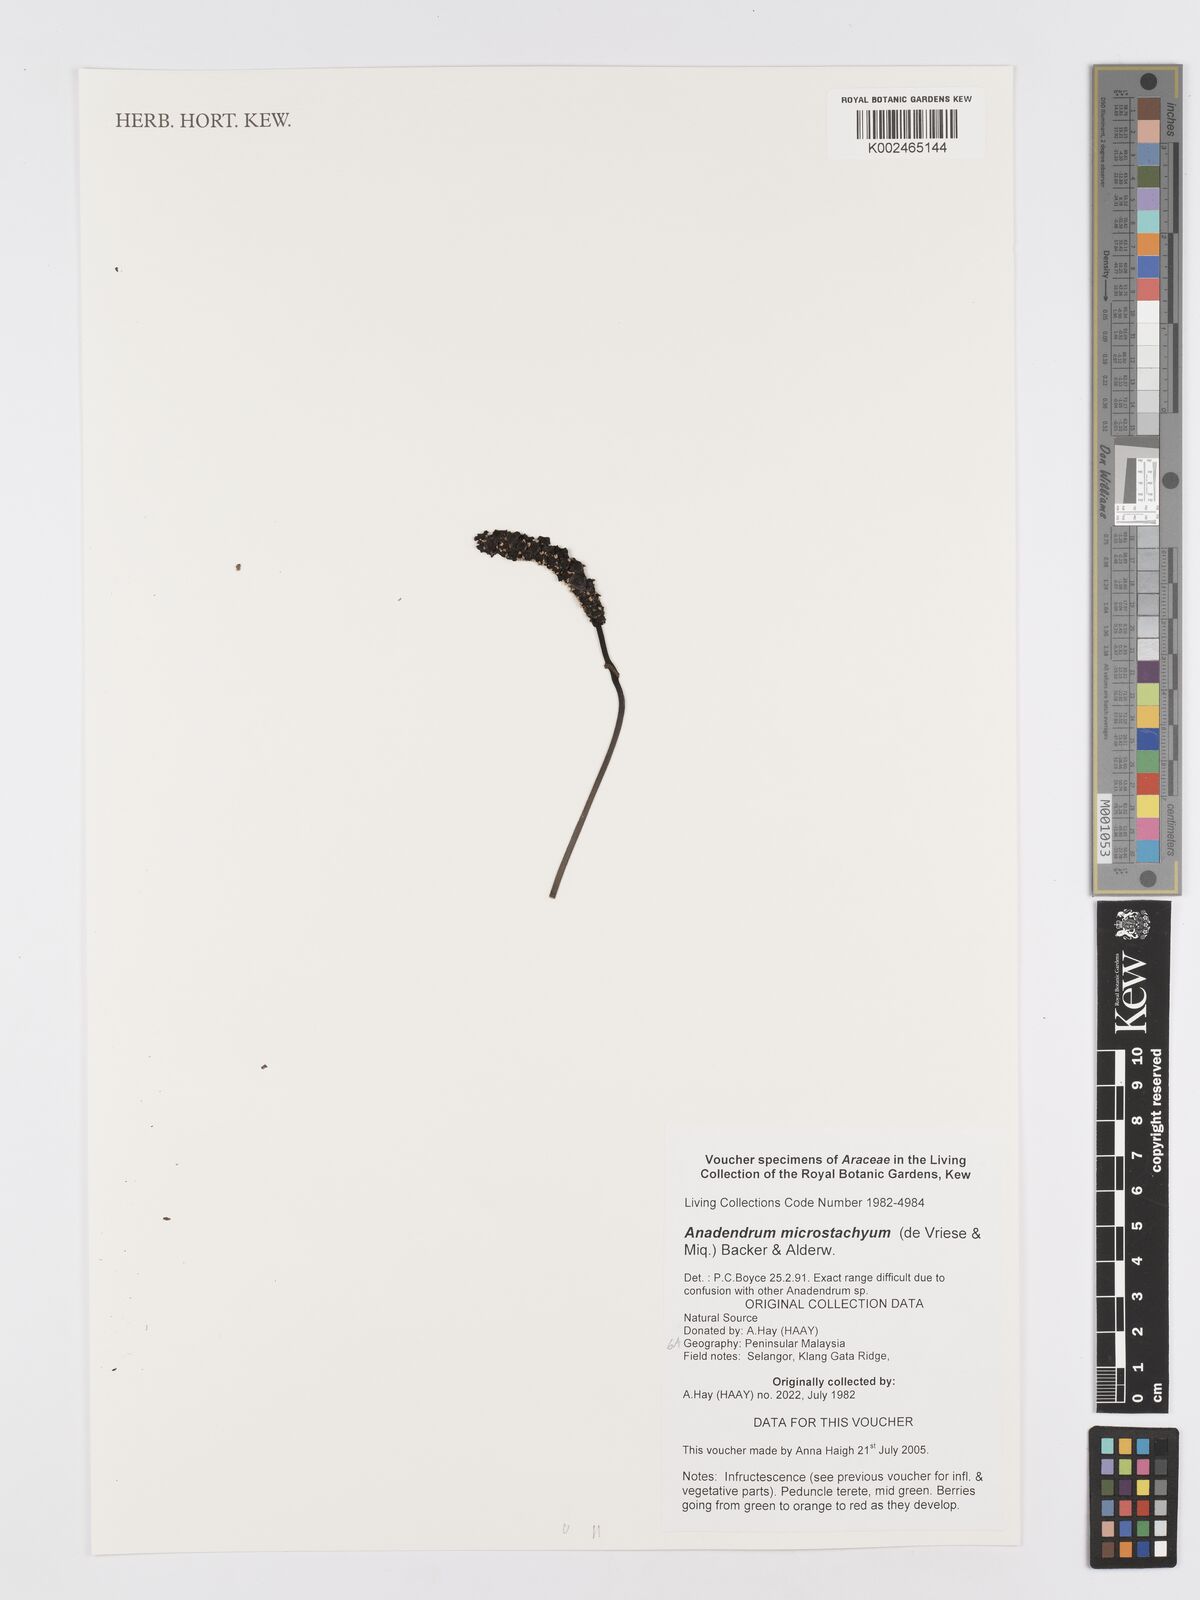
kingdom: Plantae
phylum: Tracheophyta
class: Liliopsida
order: Alismatales
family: Araceae
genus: Anadendrum
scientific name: Anadendrum microstachyum
